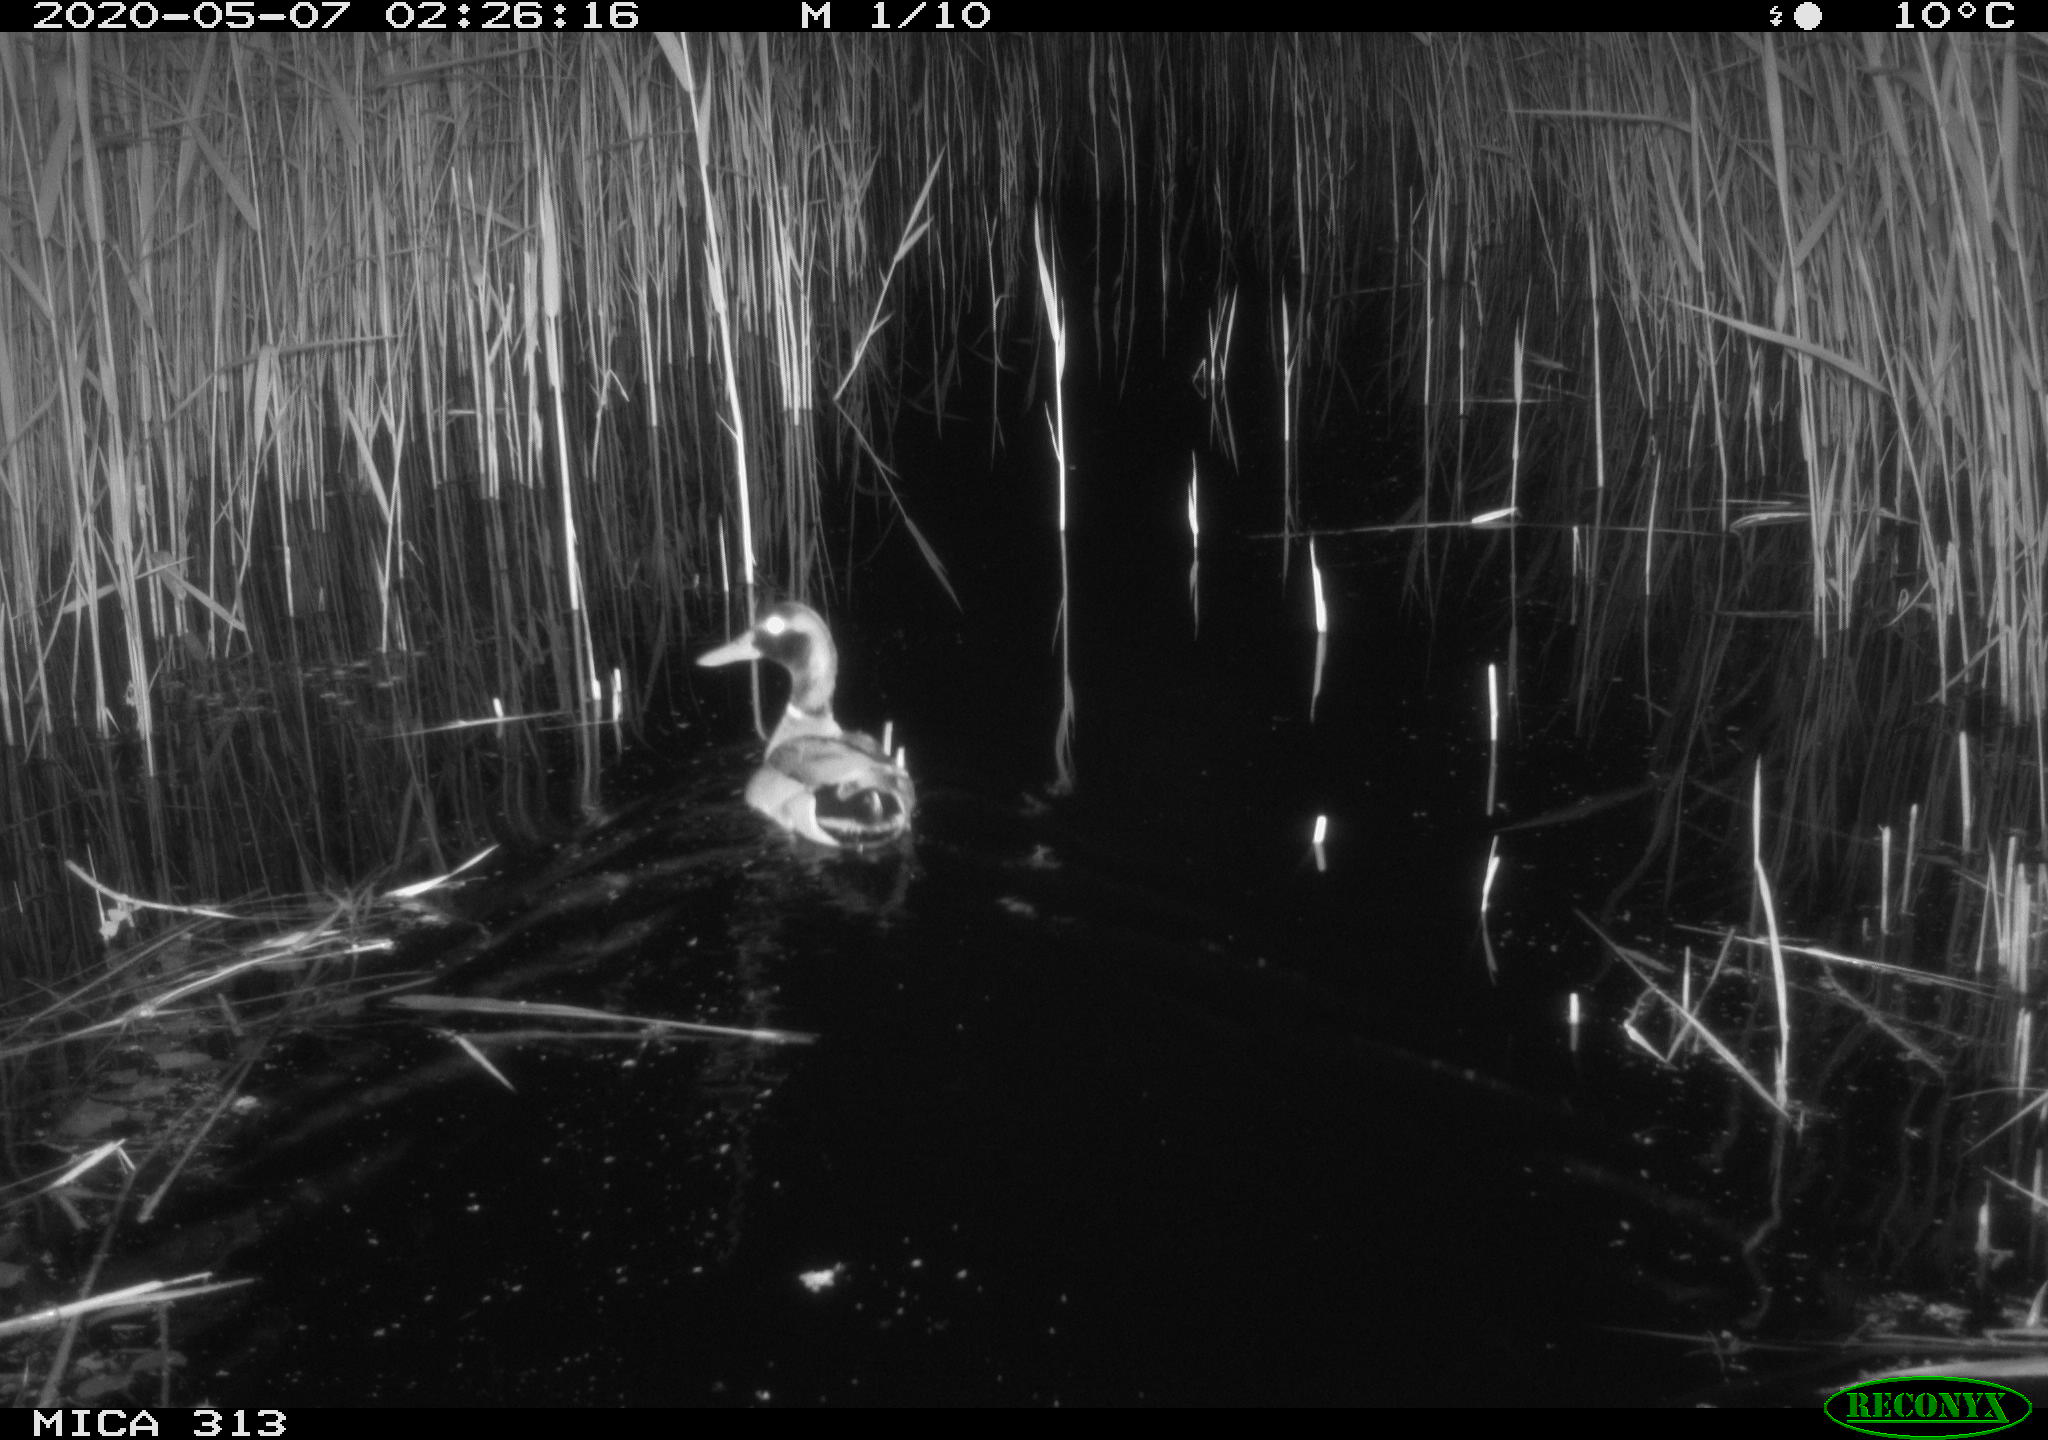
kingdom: Animalia
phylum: Chordata
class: Aves
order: Anseriformes
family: Anatidae
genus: Anas
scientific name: Anas platyrhynchos
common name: Mallard
